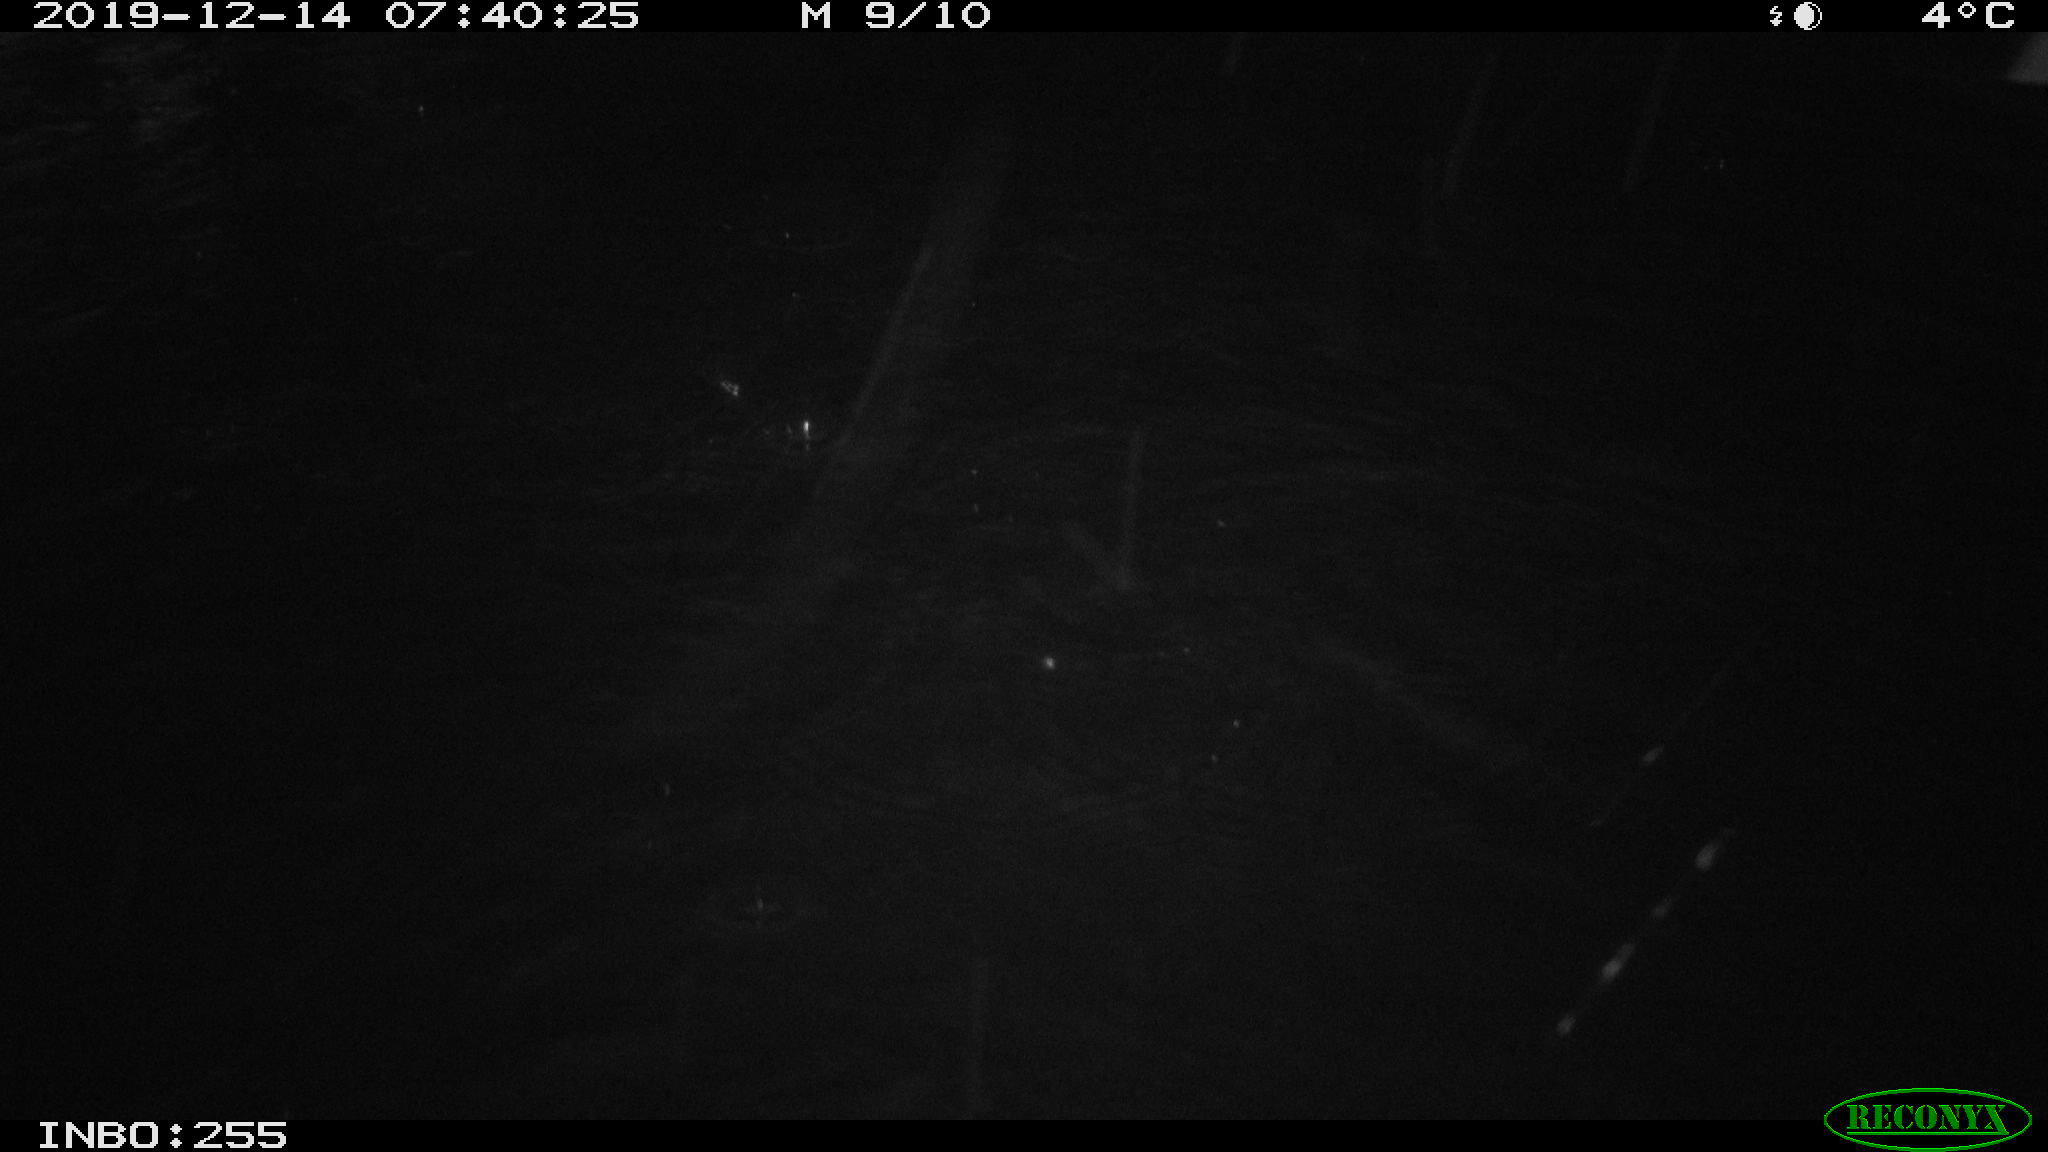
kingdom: Animalia
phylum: Chordata
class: Aves
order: Anseriformes
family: Anatidae
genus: Anas
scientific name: Anas platyrhynchos
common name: Mallard
